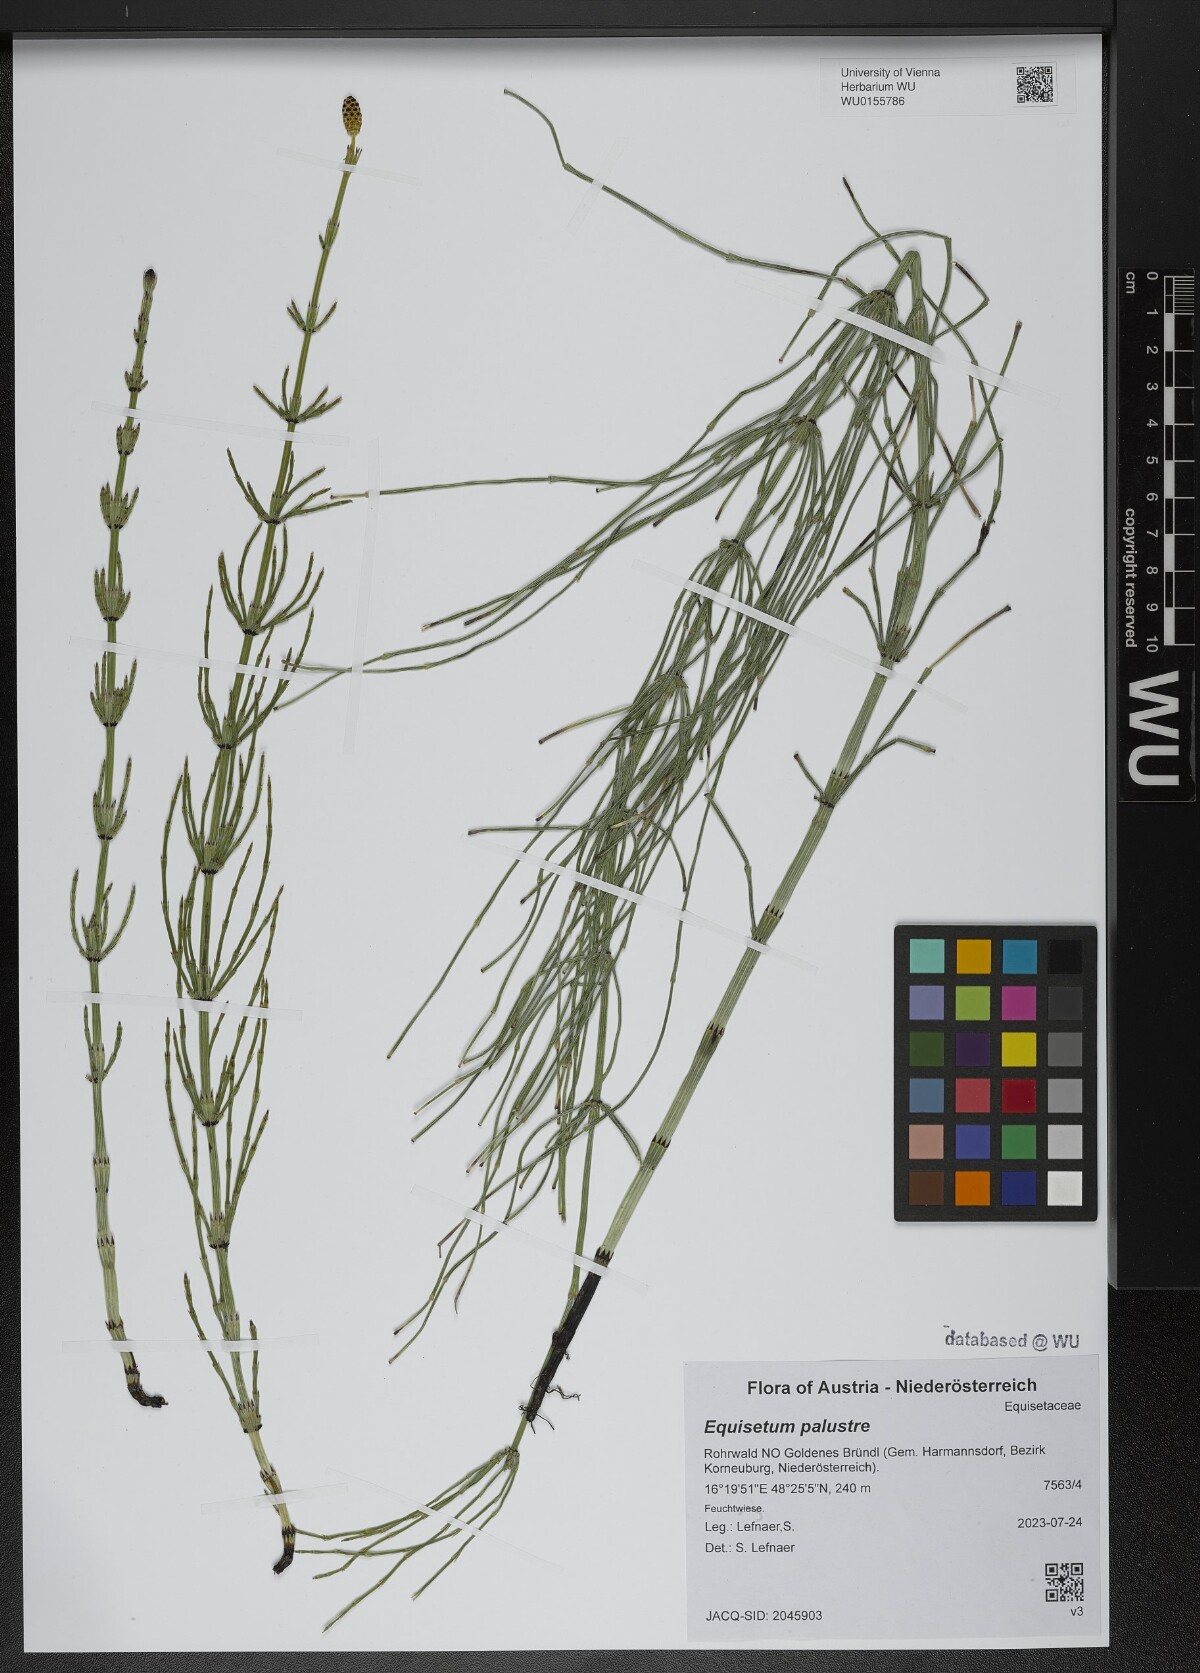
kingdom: Plantae
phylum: Tracheophyta
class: Polypodiopsida
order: Equisetales
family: Equisetaceae
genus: Equisetum
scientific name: Equisetum palustre
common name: Marsh horsetail
